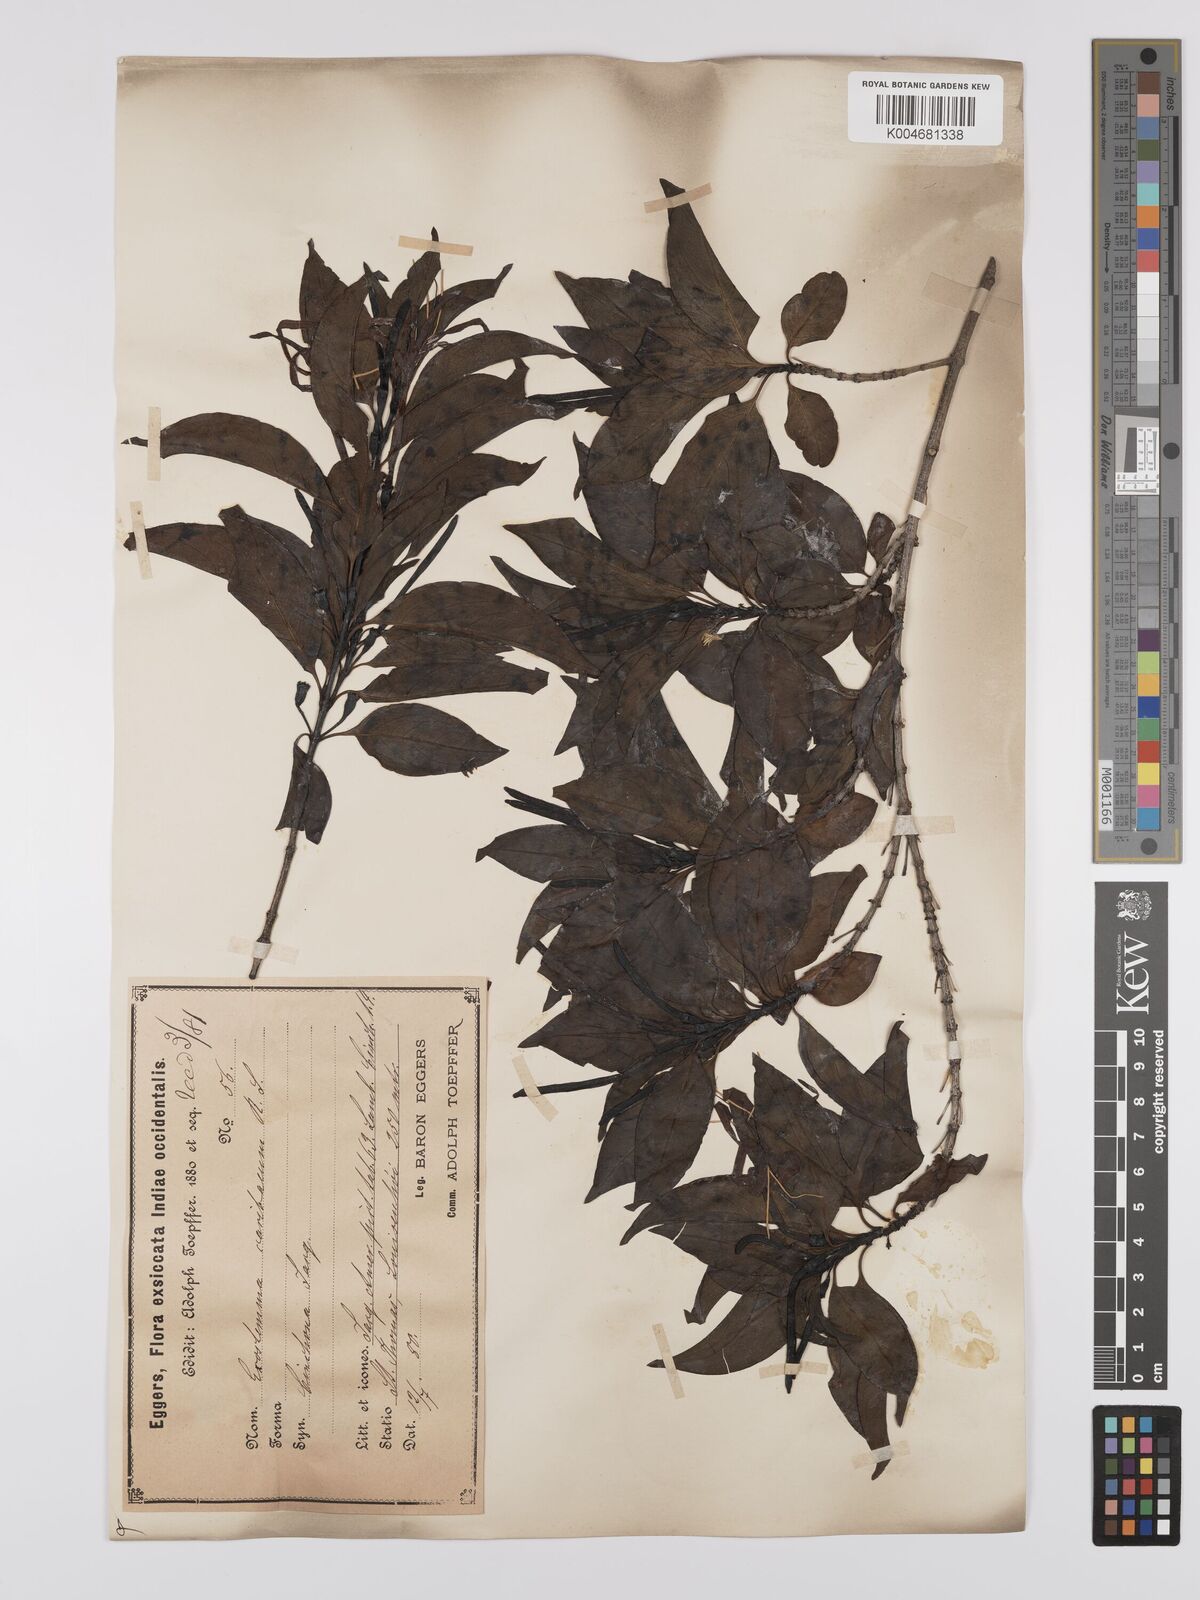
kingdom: Plantae
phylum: Tracheophyta
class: Magnoliopsida
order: Gentianales
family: Rubiaceae
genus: Exostema
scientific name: Exostema caribaeum
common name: Princewood
